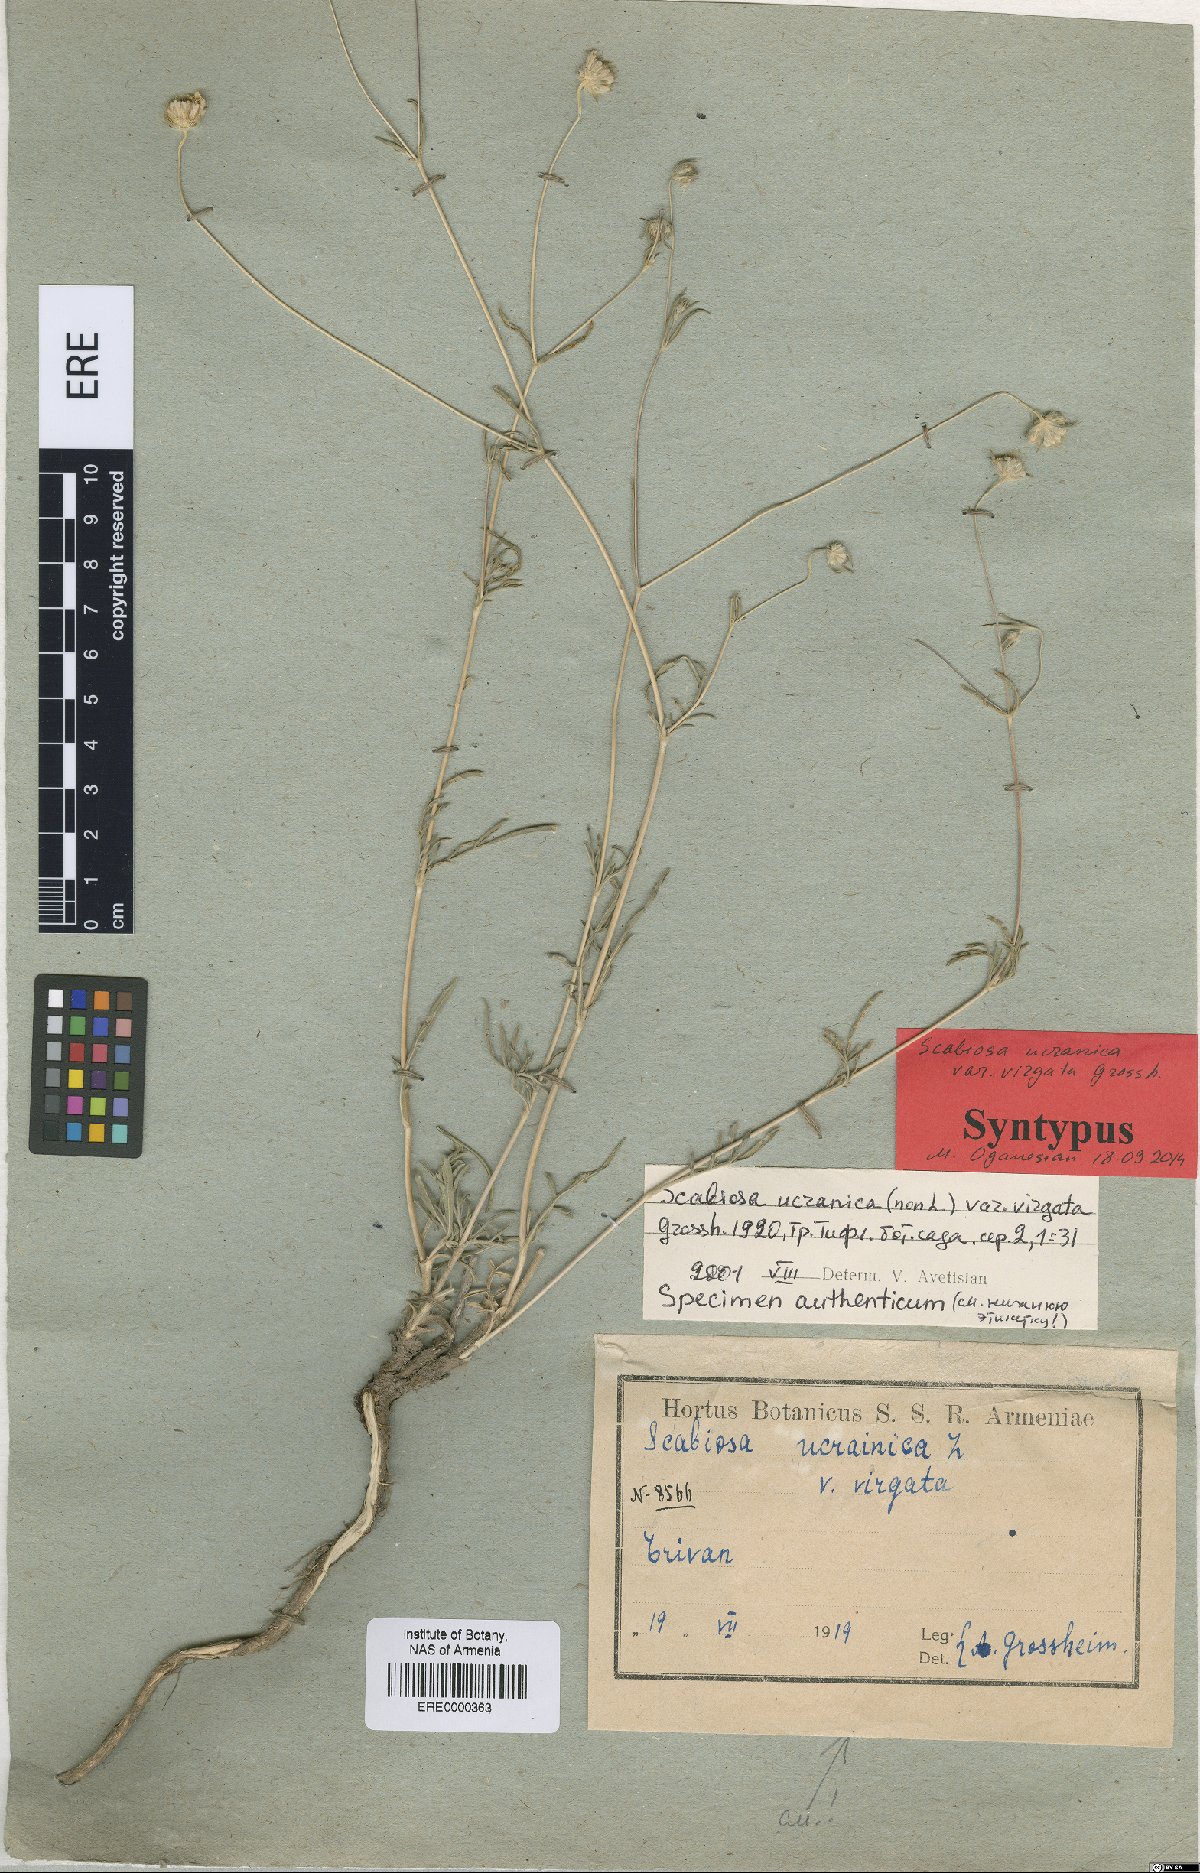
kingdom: Plantae
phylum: Tracheophyta
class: Magnoliopsida
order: Dipsacales
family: Caprifoliaceae
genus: Lomelosia
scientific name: Lomelosia argentea
